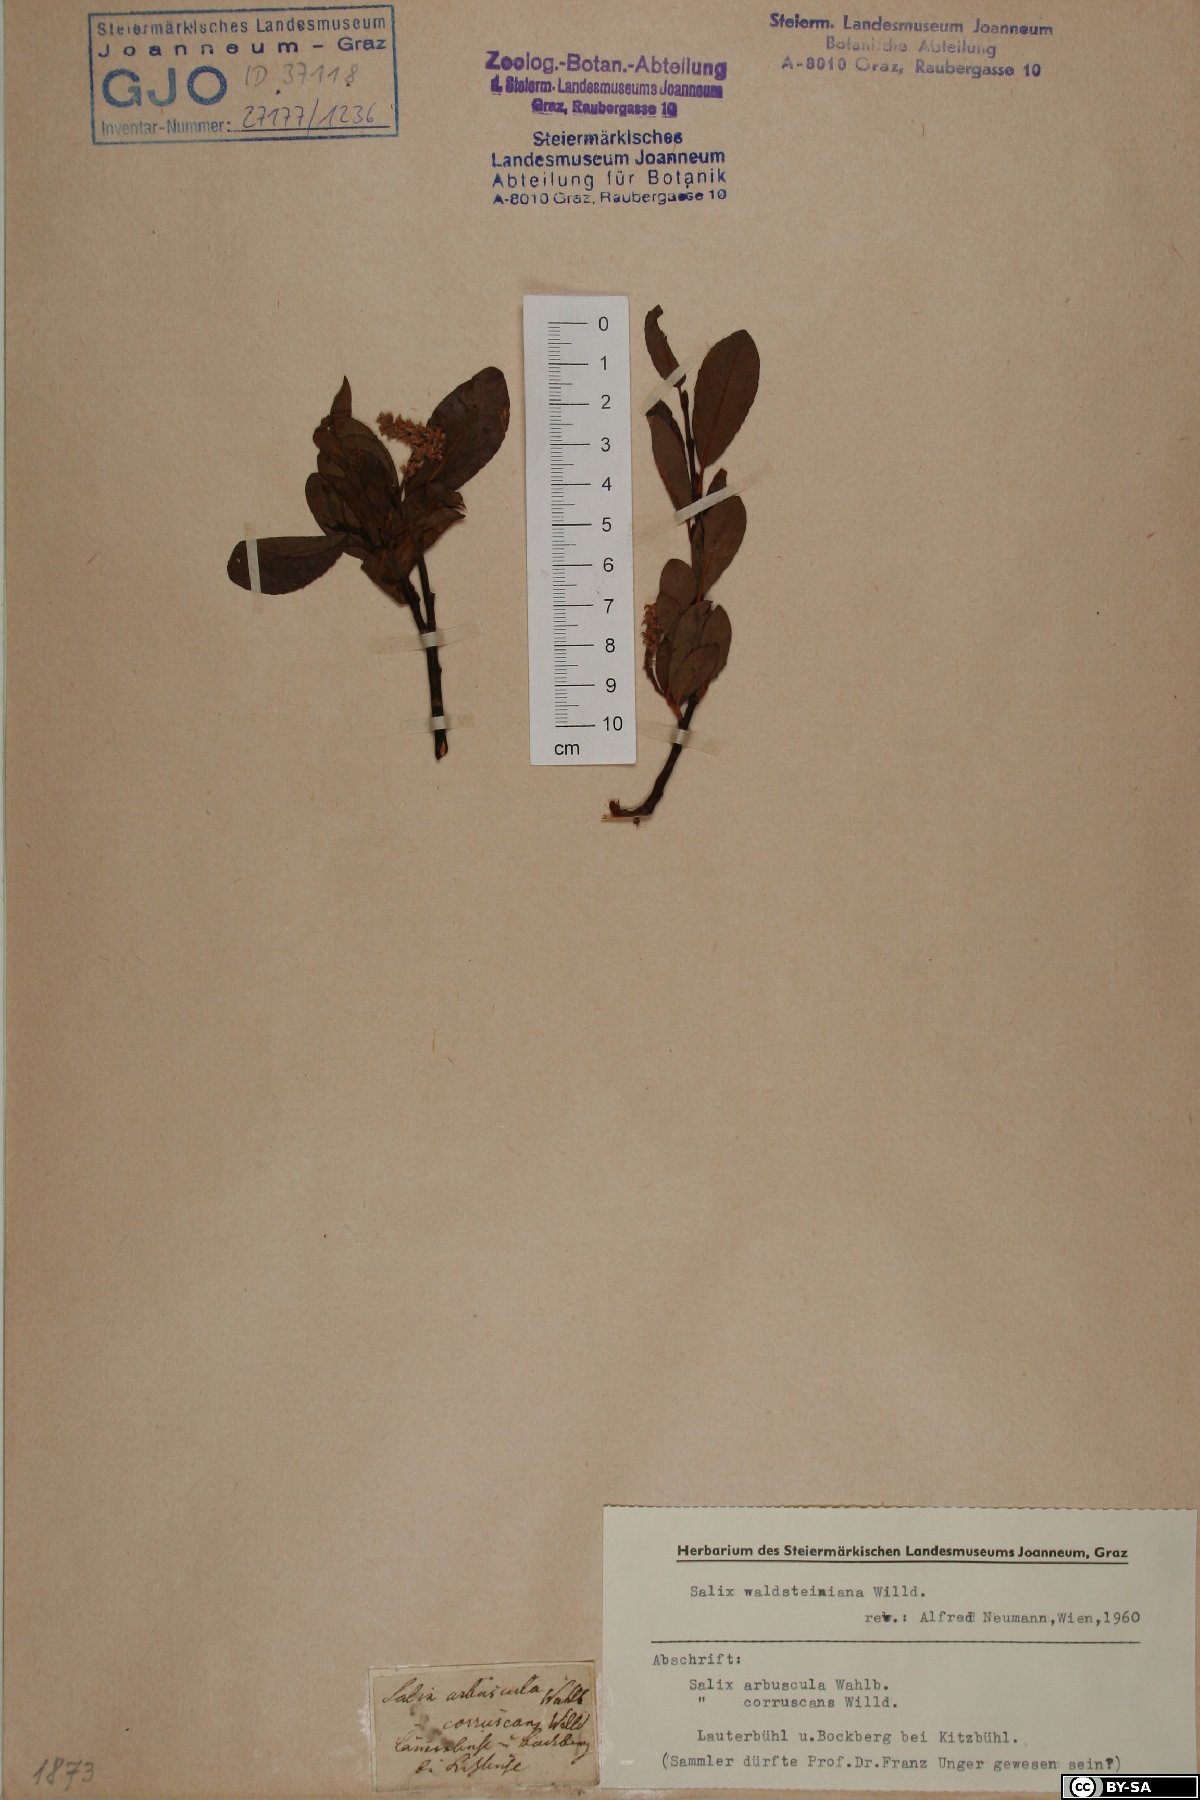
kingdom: Plantae
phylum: Tracheophyta
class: Magnoliopsida
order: Malpighiales
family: Salicaceae
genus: Salix
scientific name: Salix waldsteiniana
